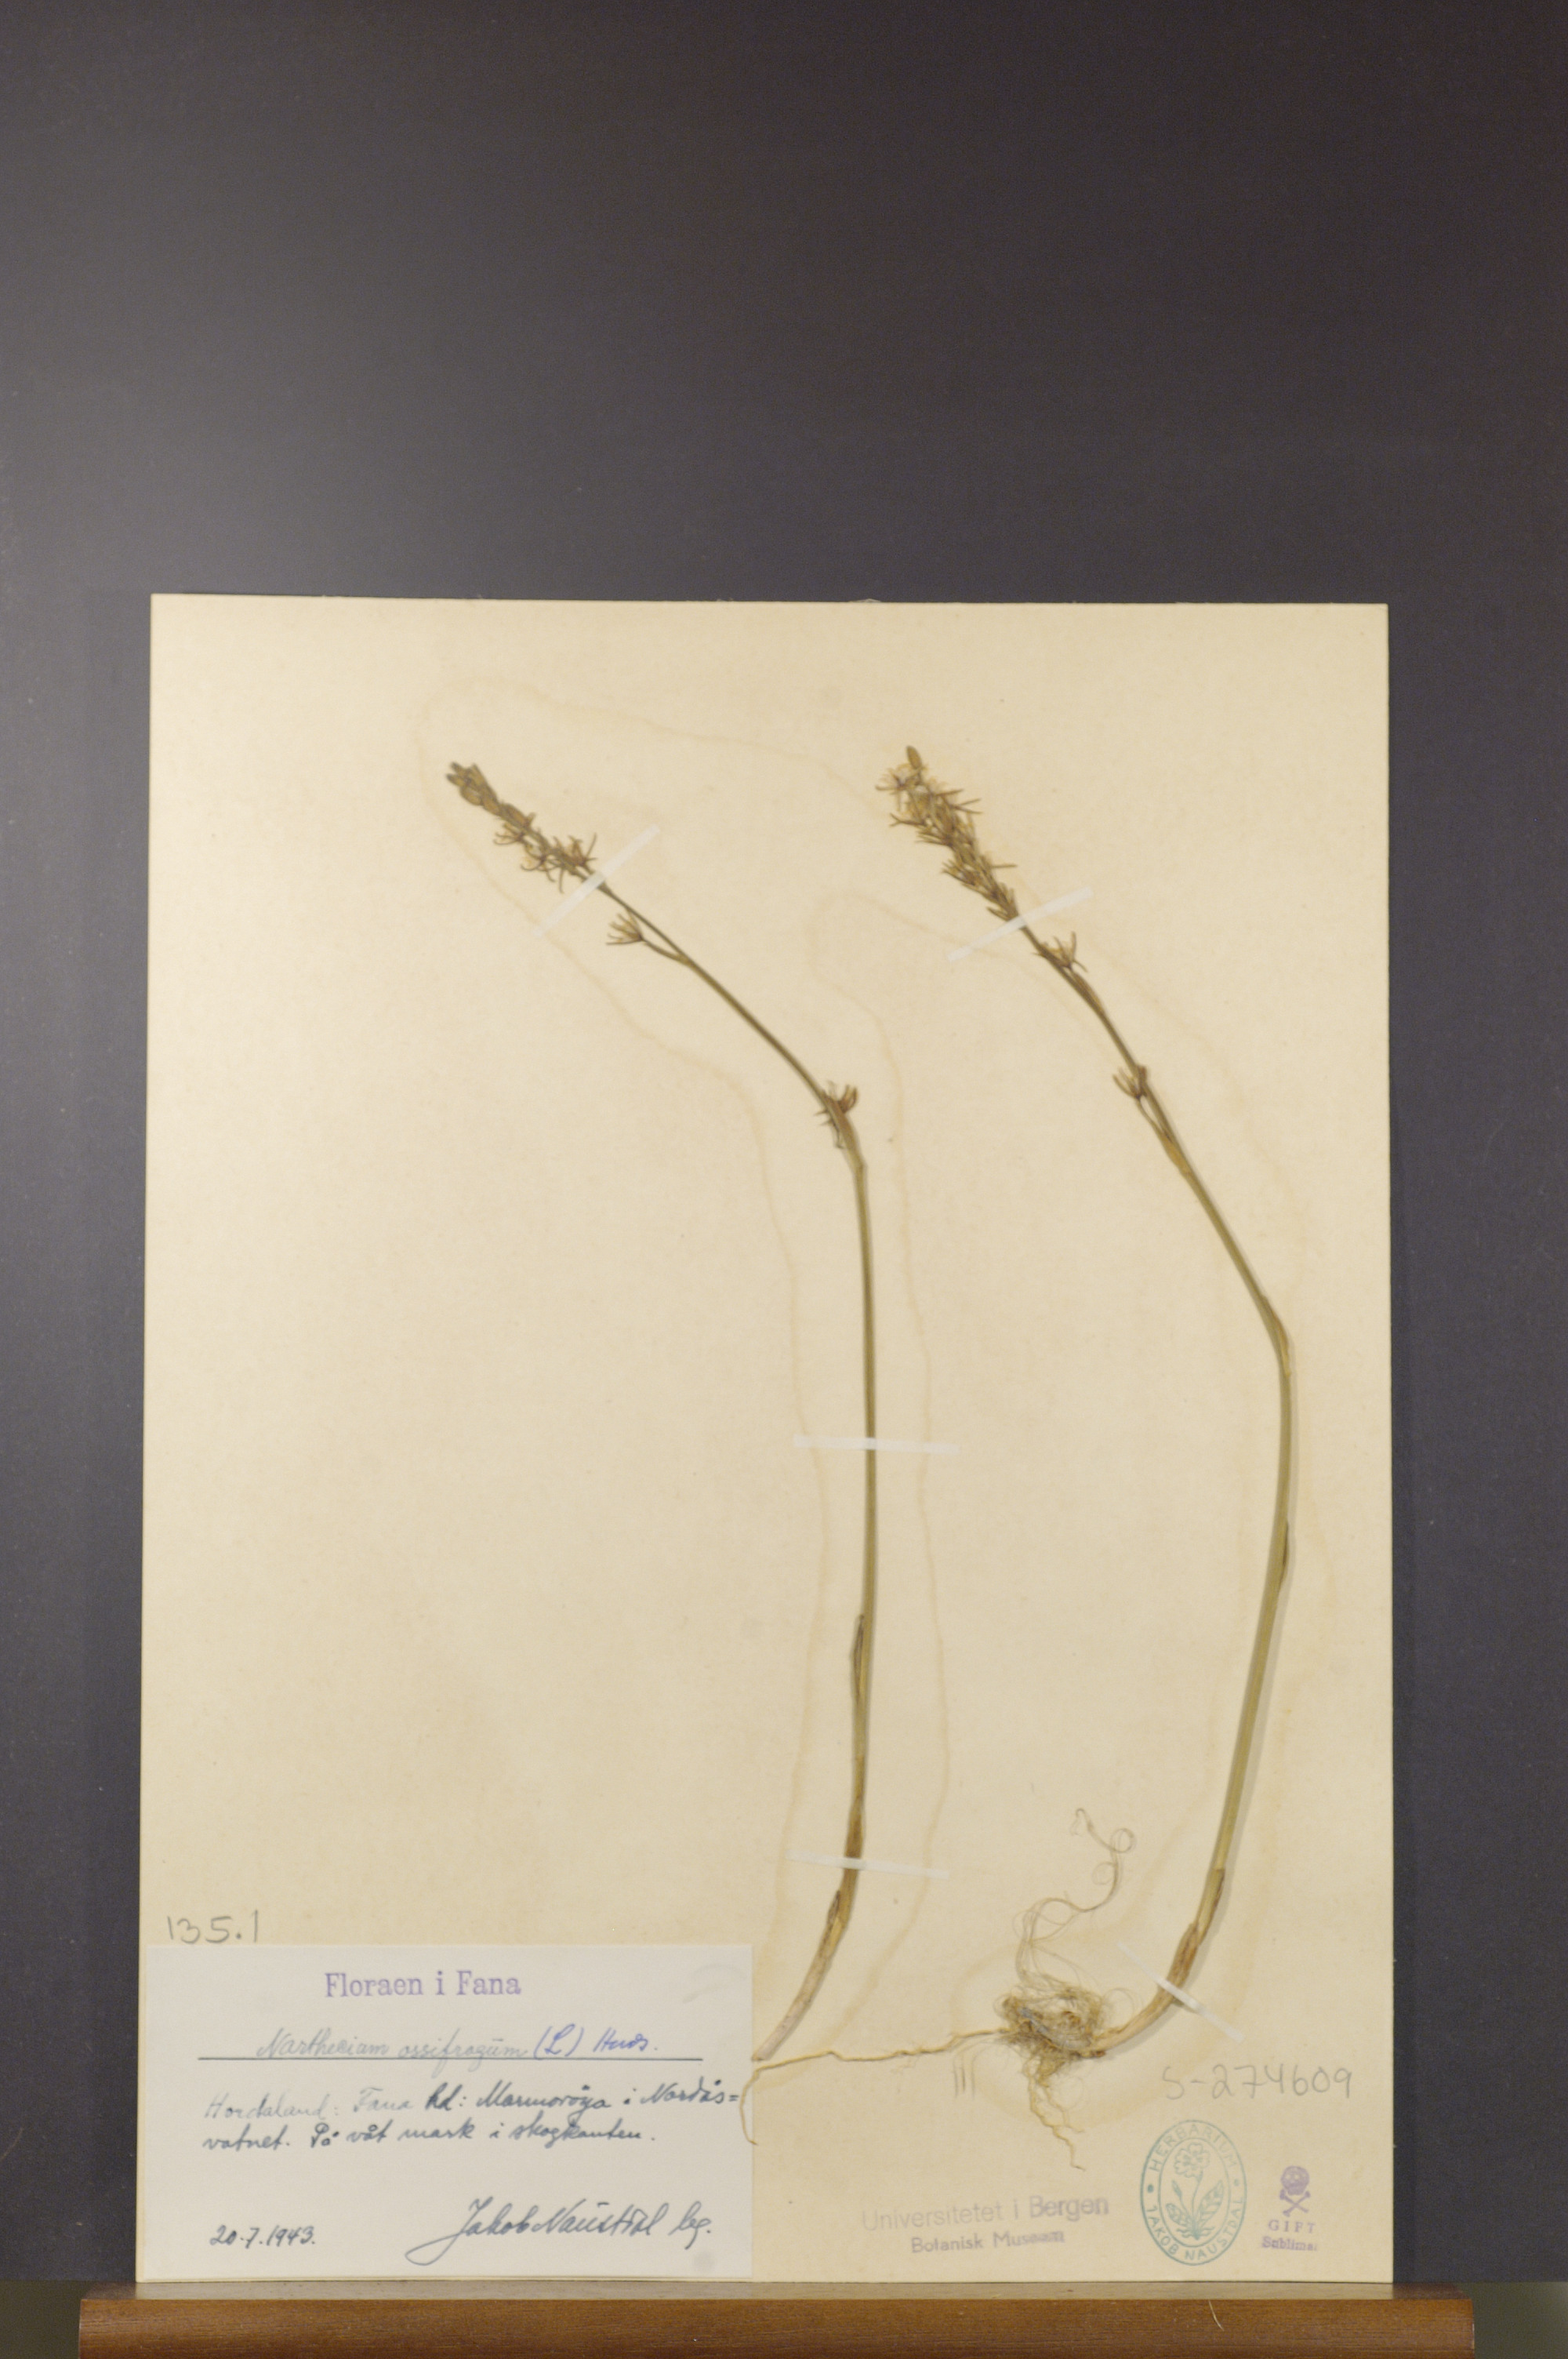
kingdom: Plantae
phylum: Tracheophyta
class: Liliopsida
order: Dioscoreales
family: Nartheciaceae
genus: Narthecium
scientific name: Narthecium ossifragum
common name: Bog asphodel
